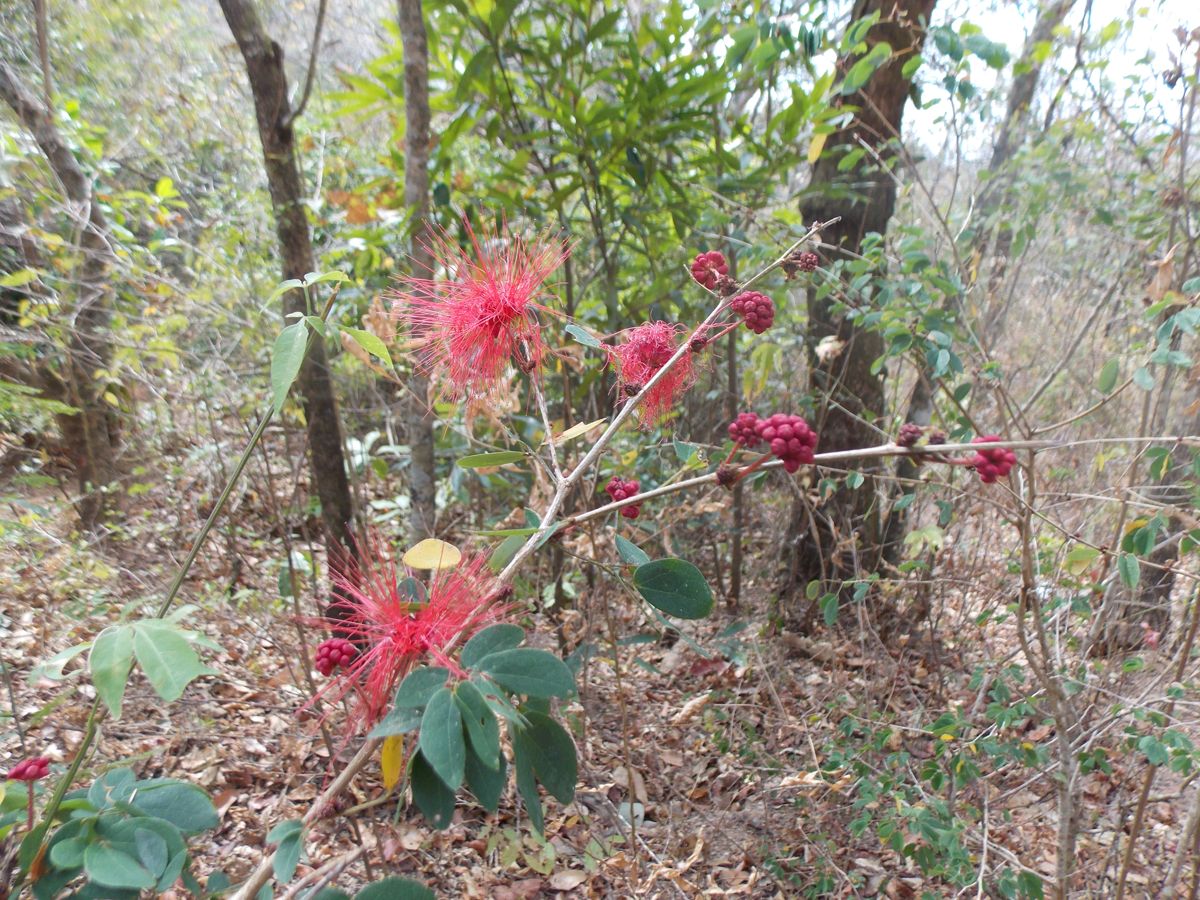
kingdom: Plantae
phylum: Tracheophyta
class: Magnoliopsida
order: Fabales
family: Fabaceae
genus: Calliandra
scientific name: Calliandra tergemina
